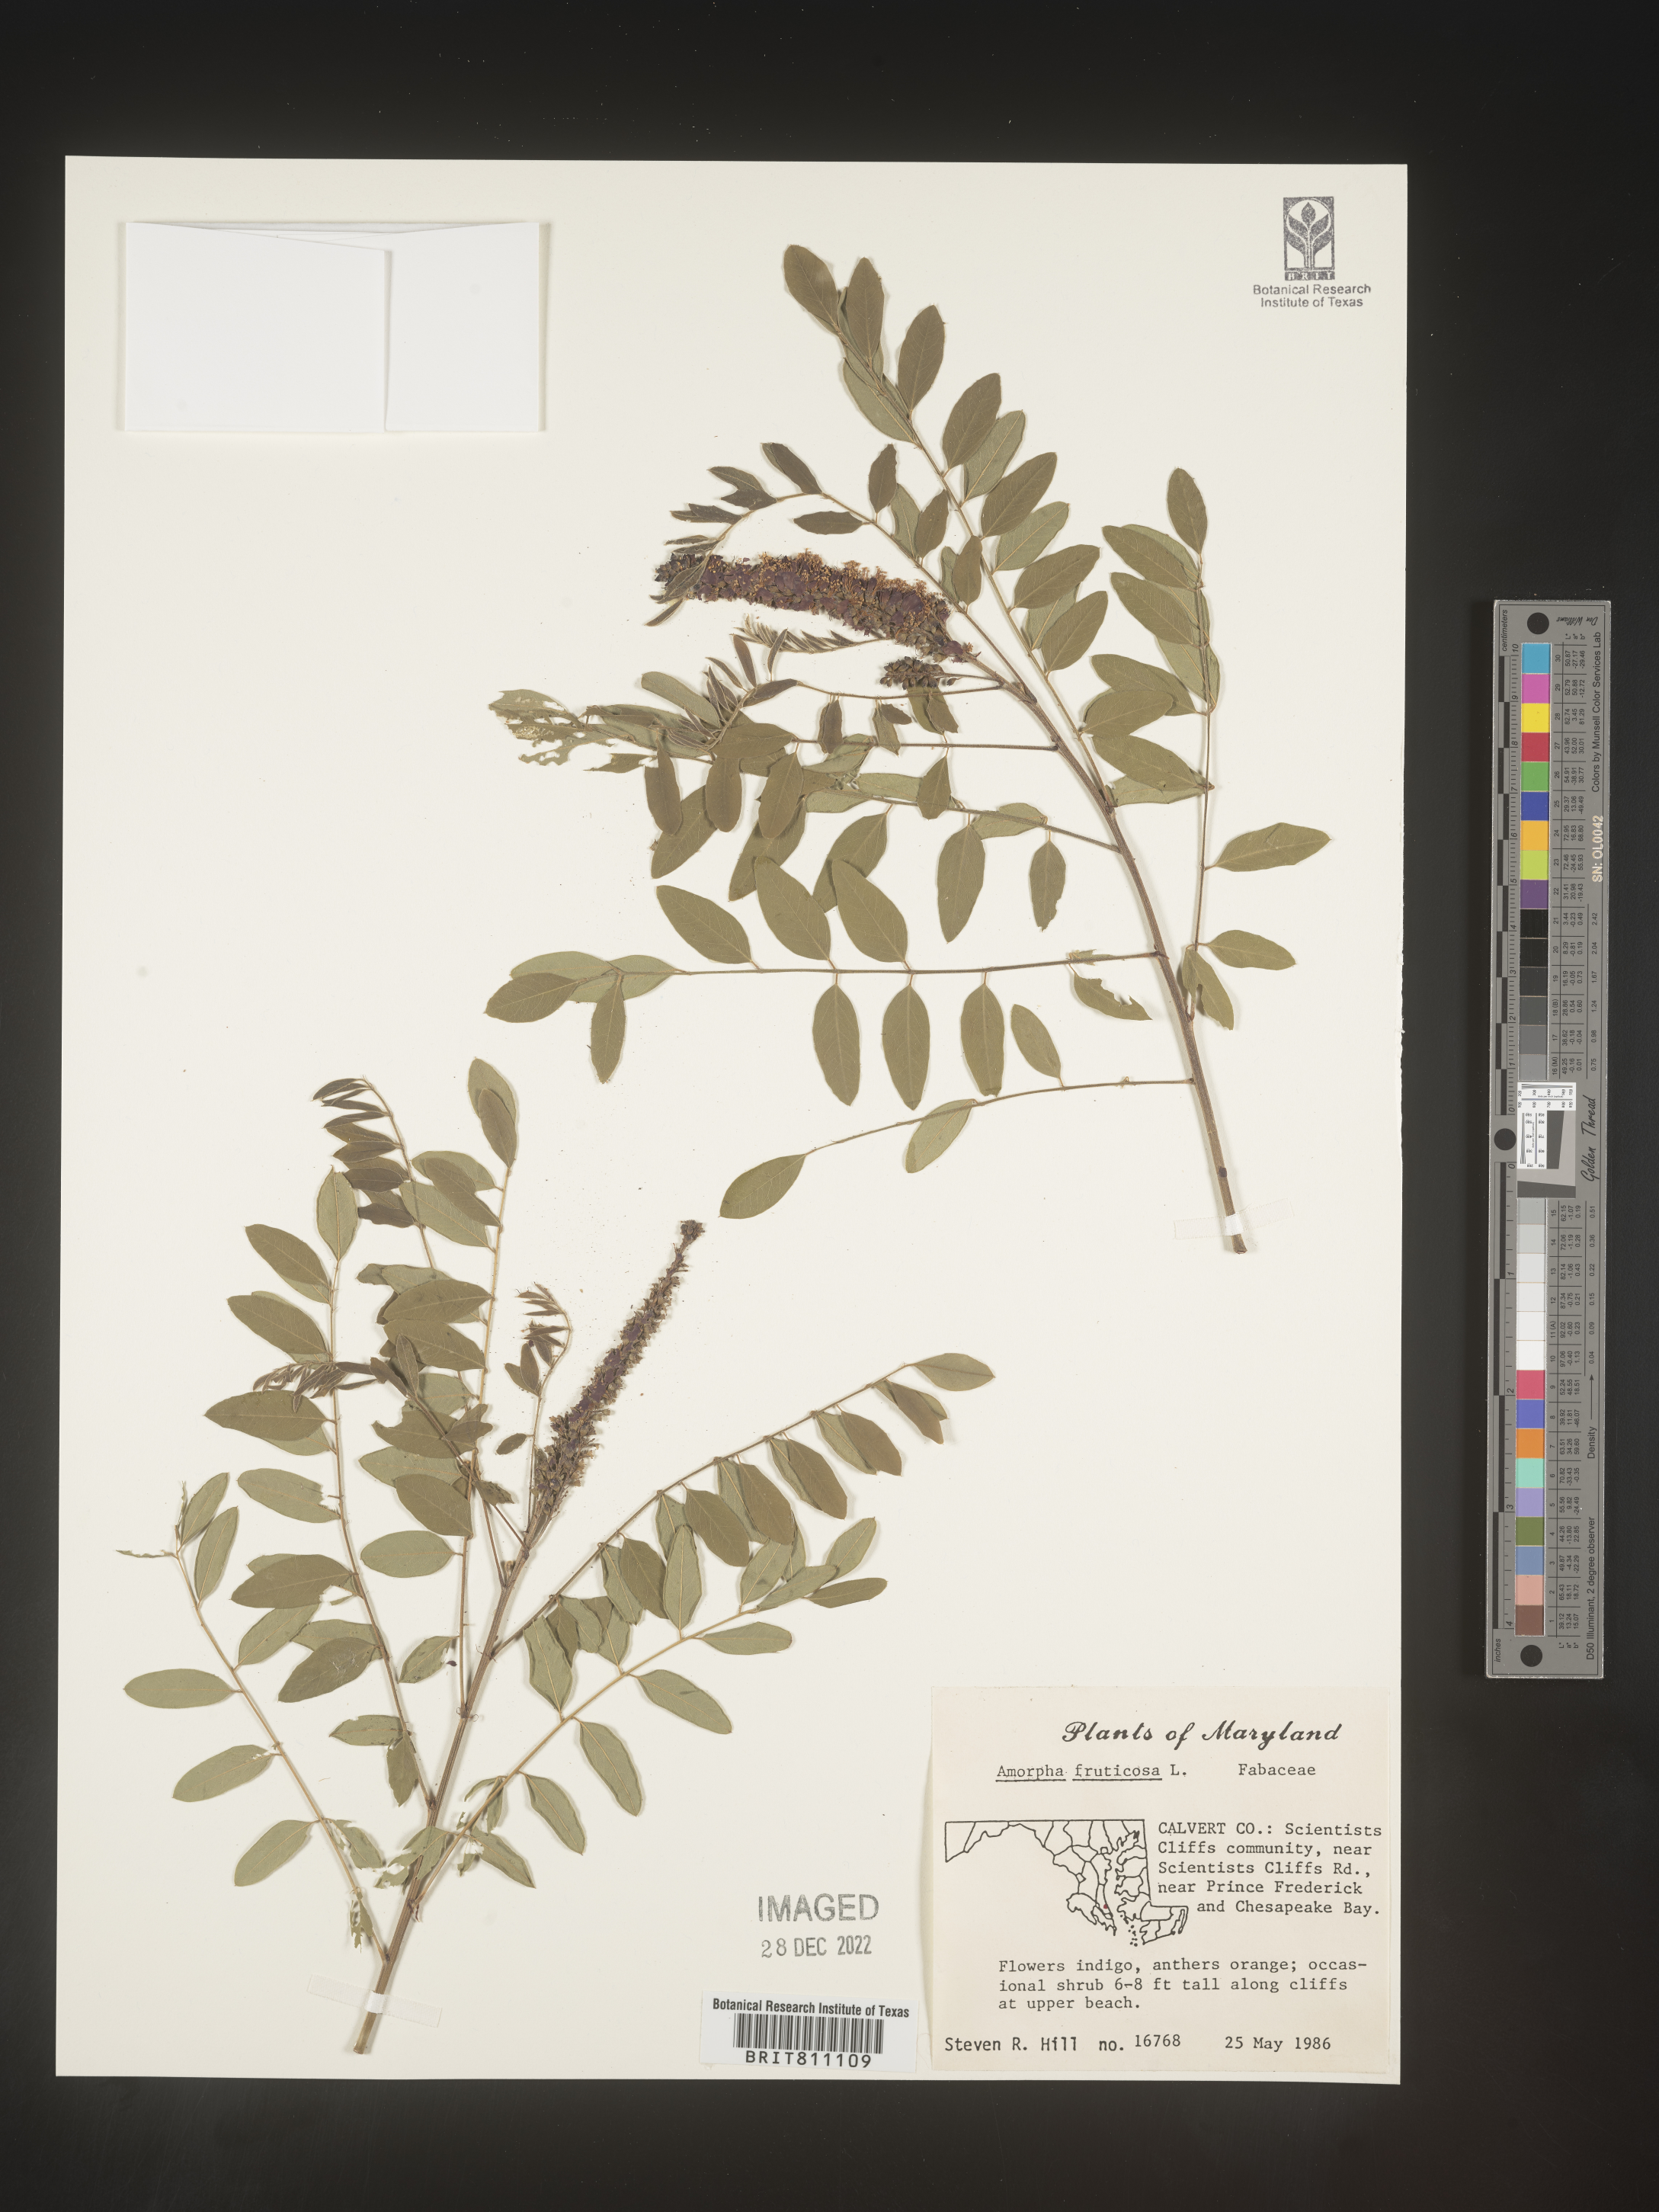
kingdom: Plantae
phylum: Tracheophyta
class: Magnoliopsida
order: Fabales
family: Fabaceae
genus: Amorpha
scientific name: Amorpha fruticosa
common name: False indigo
